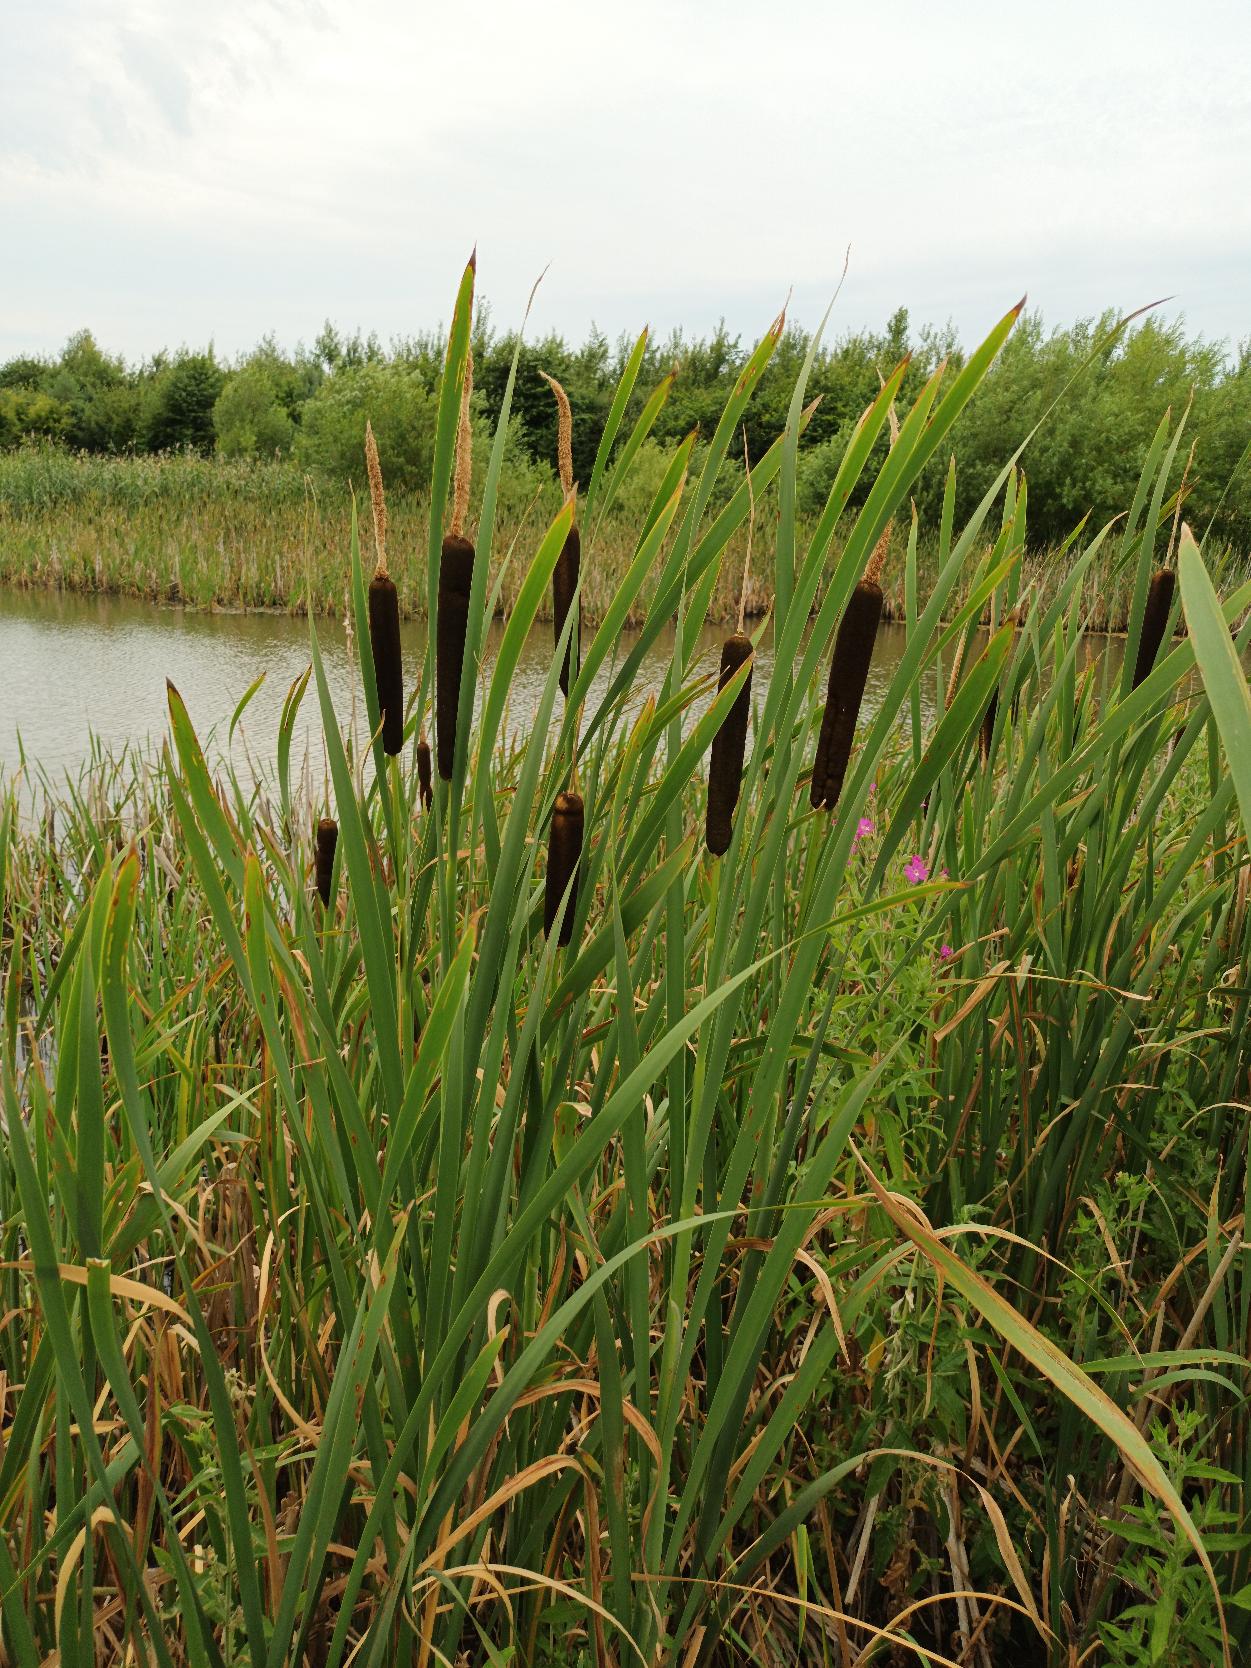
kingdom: Plantae
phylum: Tracheophyta
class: Liliopsida
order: Poales
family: Typhaceae
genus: Typha
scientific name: Typha latifolia
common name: Bredbladet dunhammer
